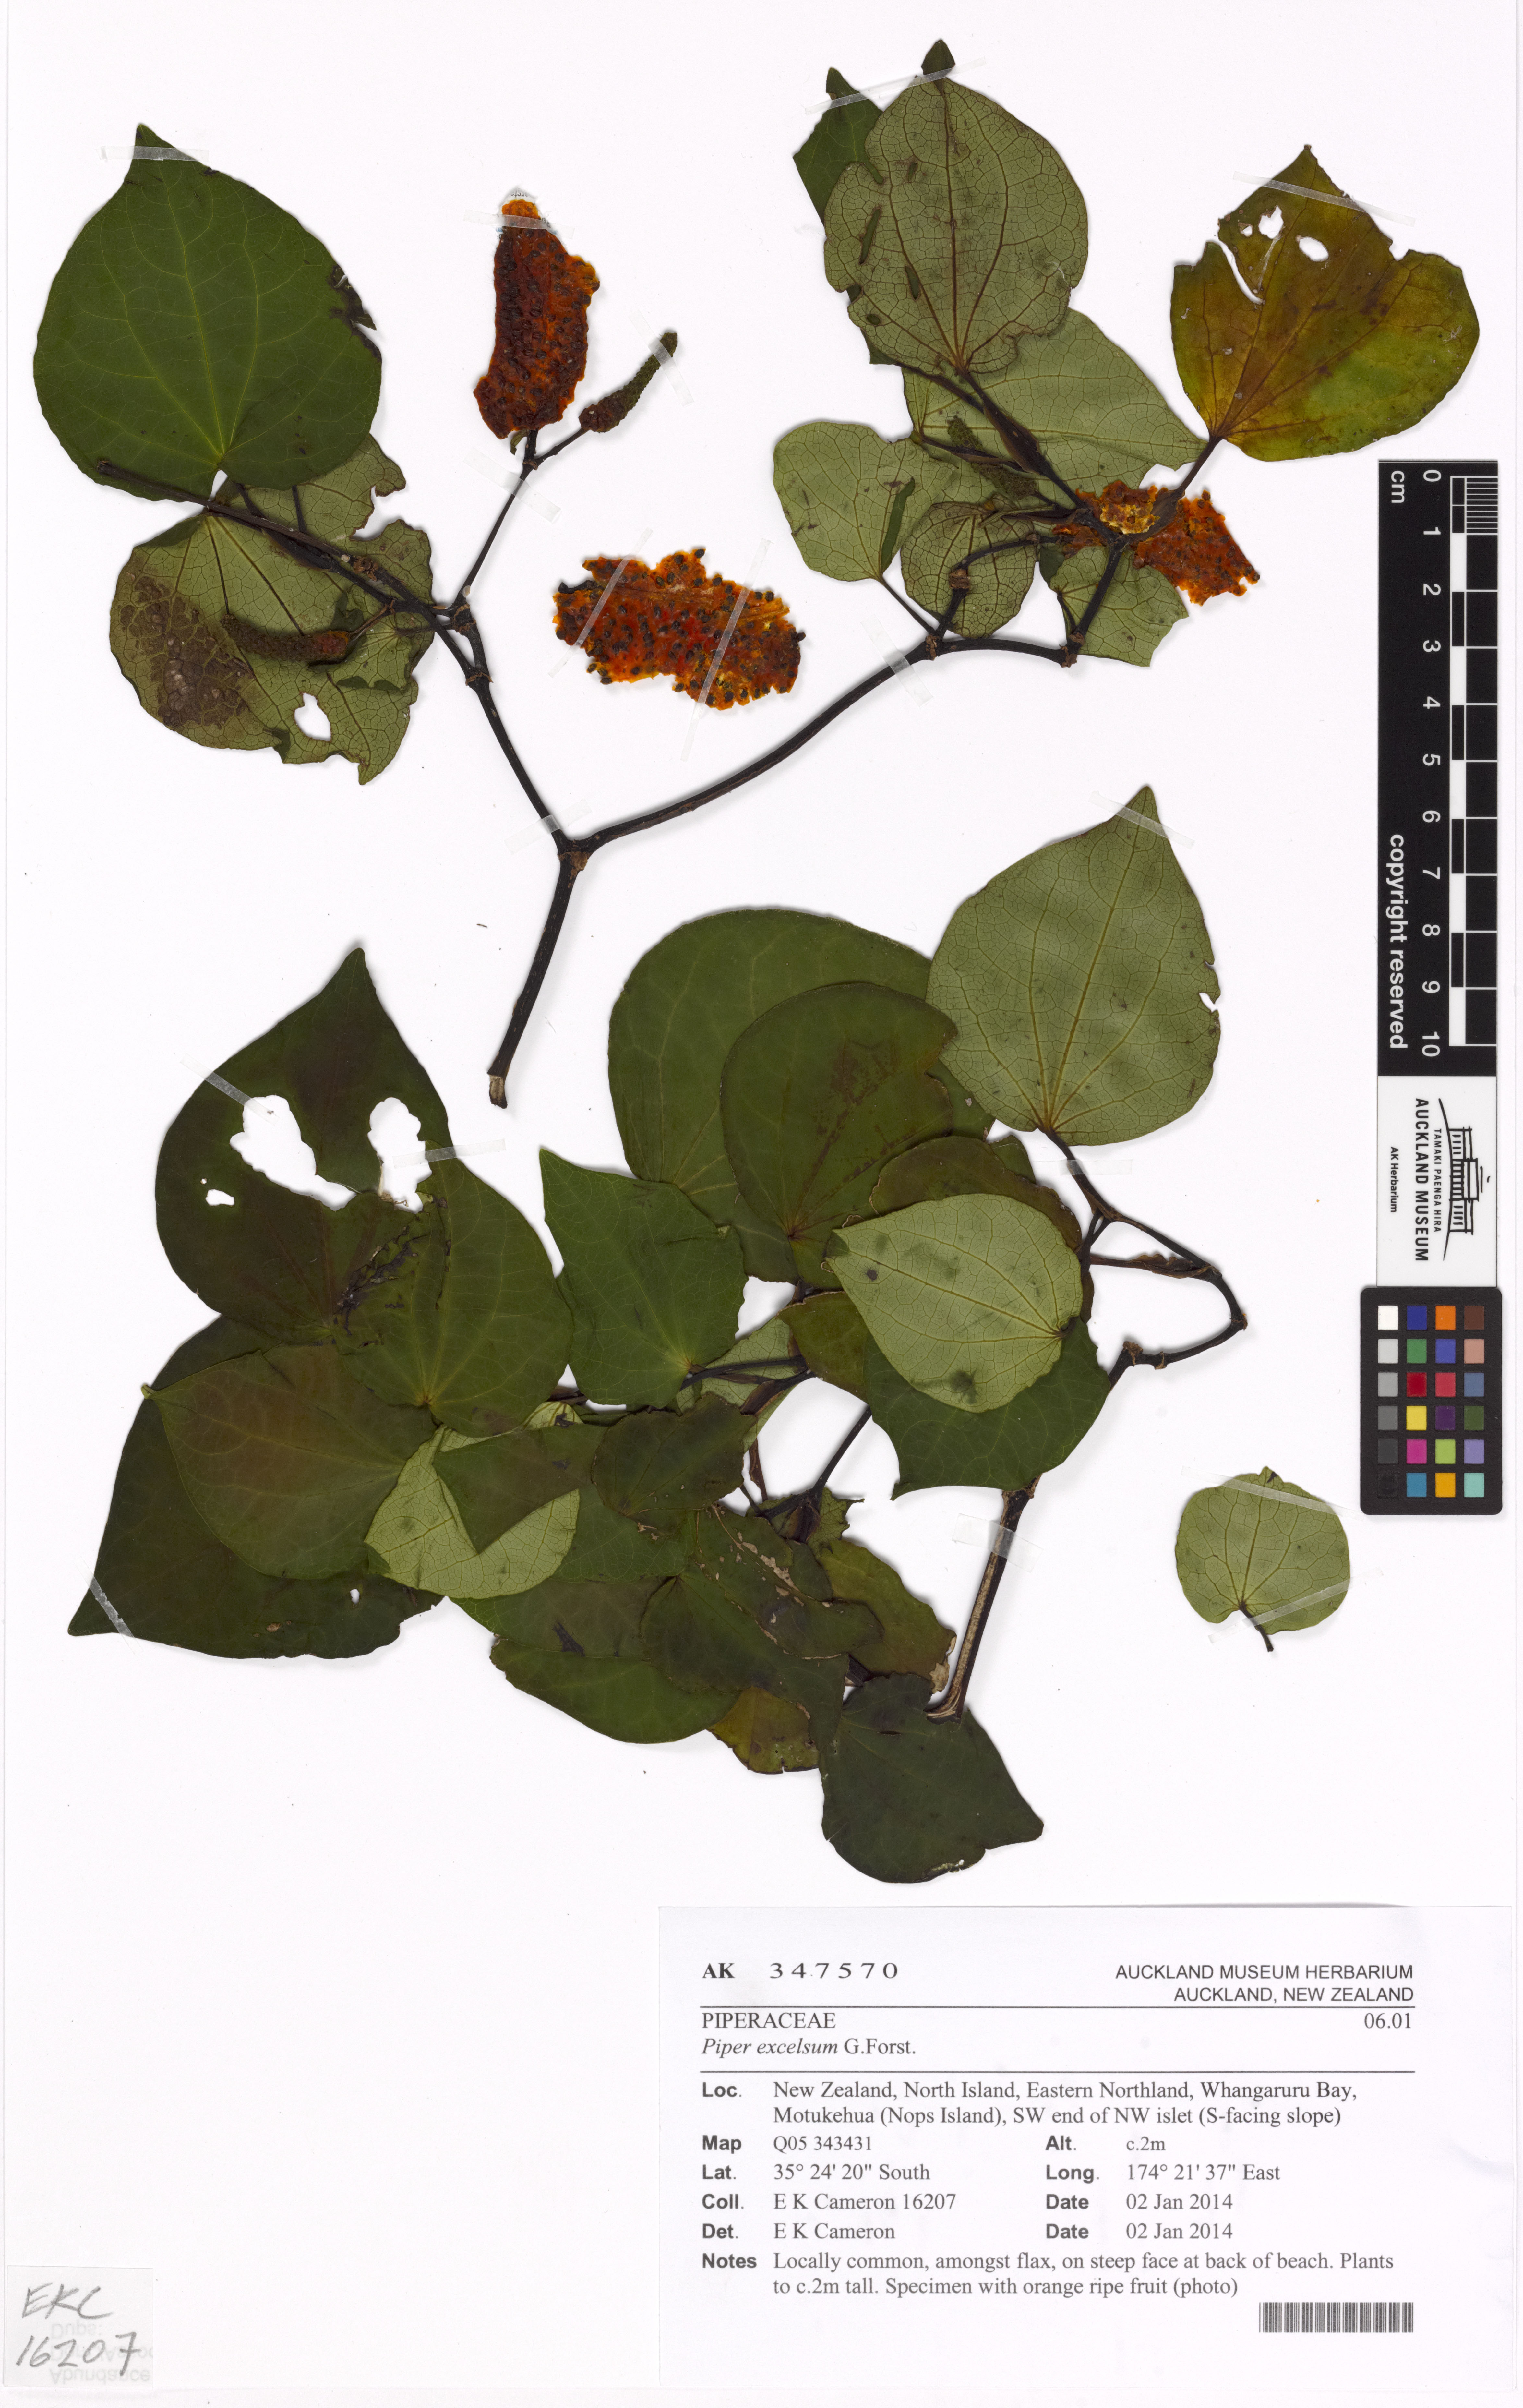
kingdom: Plantae
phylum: Tracheophyta
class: Magnoliopsida
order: Piperales
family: Piperaceae
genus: Macropiper
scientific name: Macropiper excelsum
